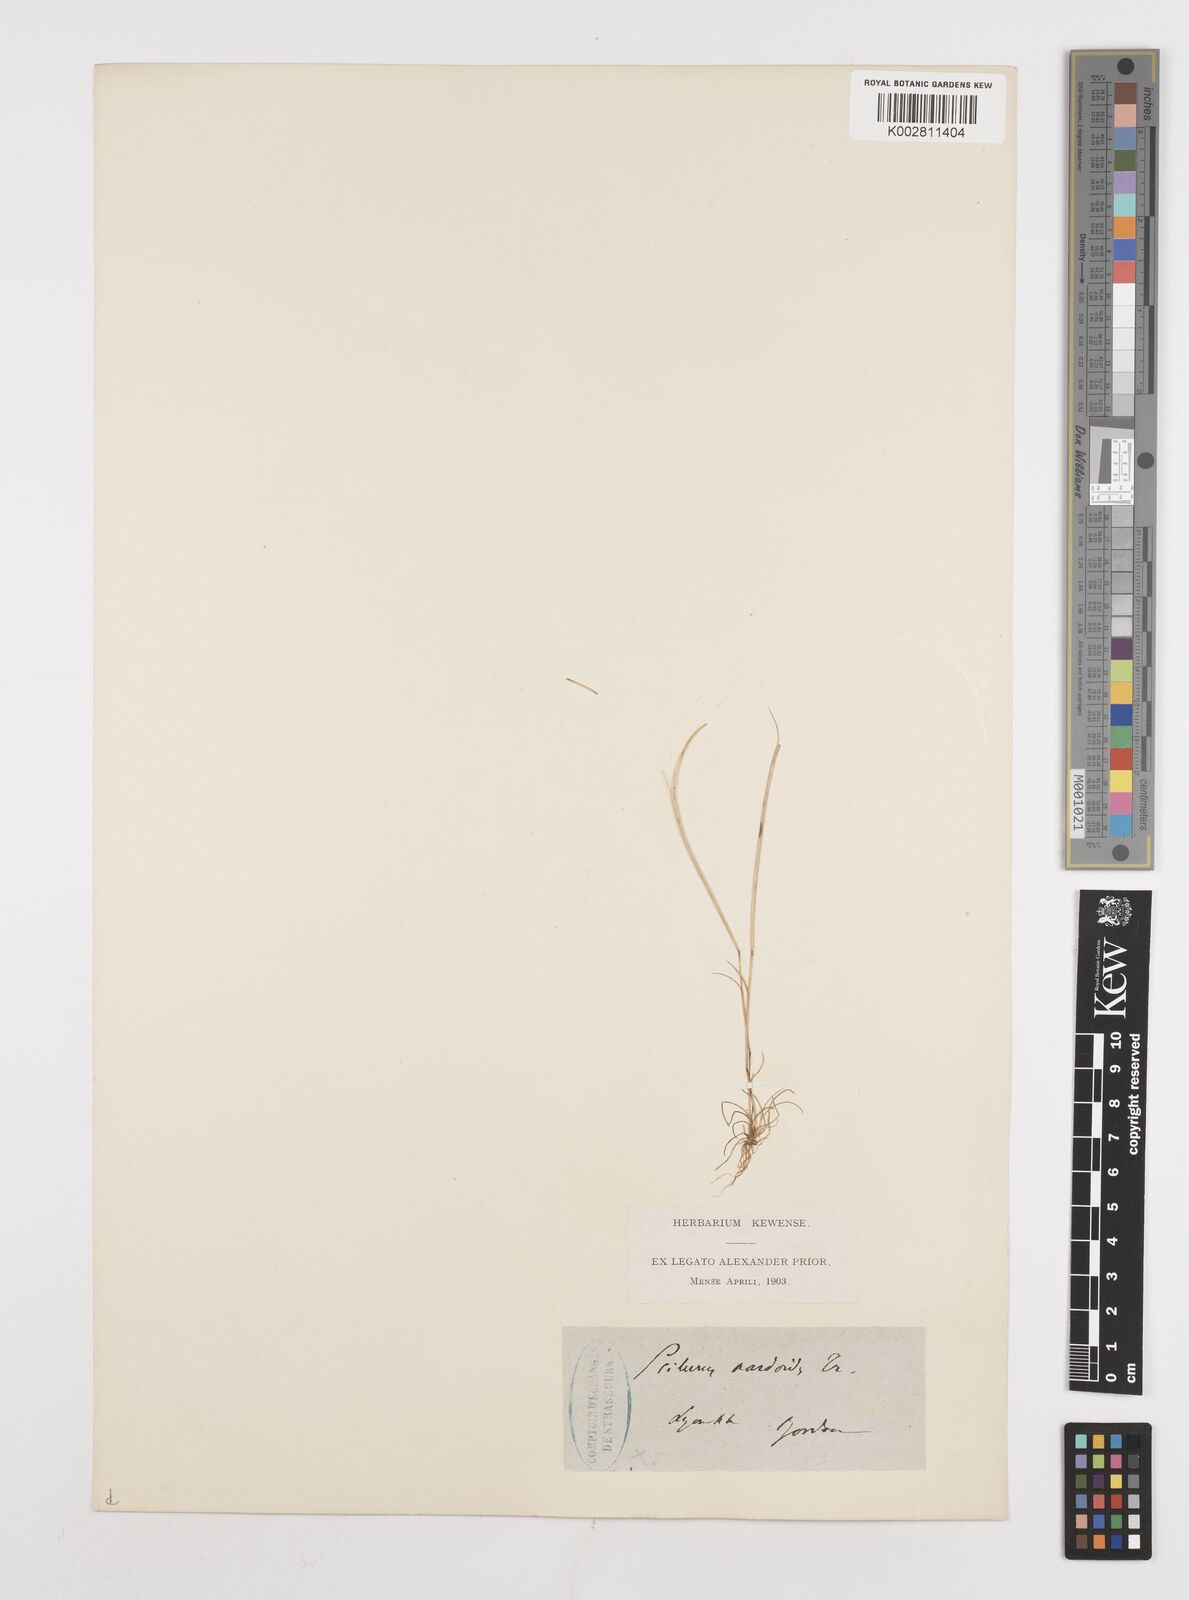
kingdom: Plantae
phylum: Tracheophyta
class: Liliopsida
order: Poales
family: Poaceae
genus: Festuca
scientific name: Festuca incurva
